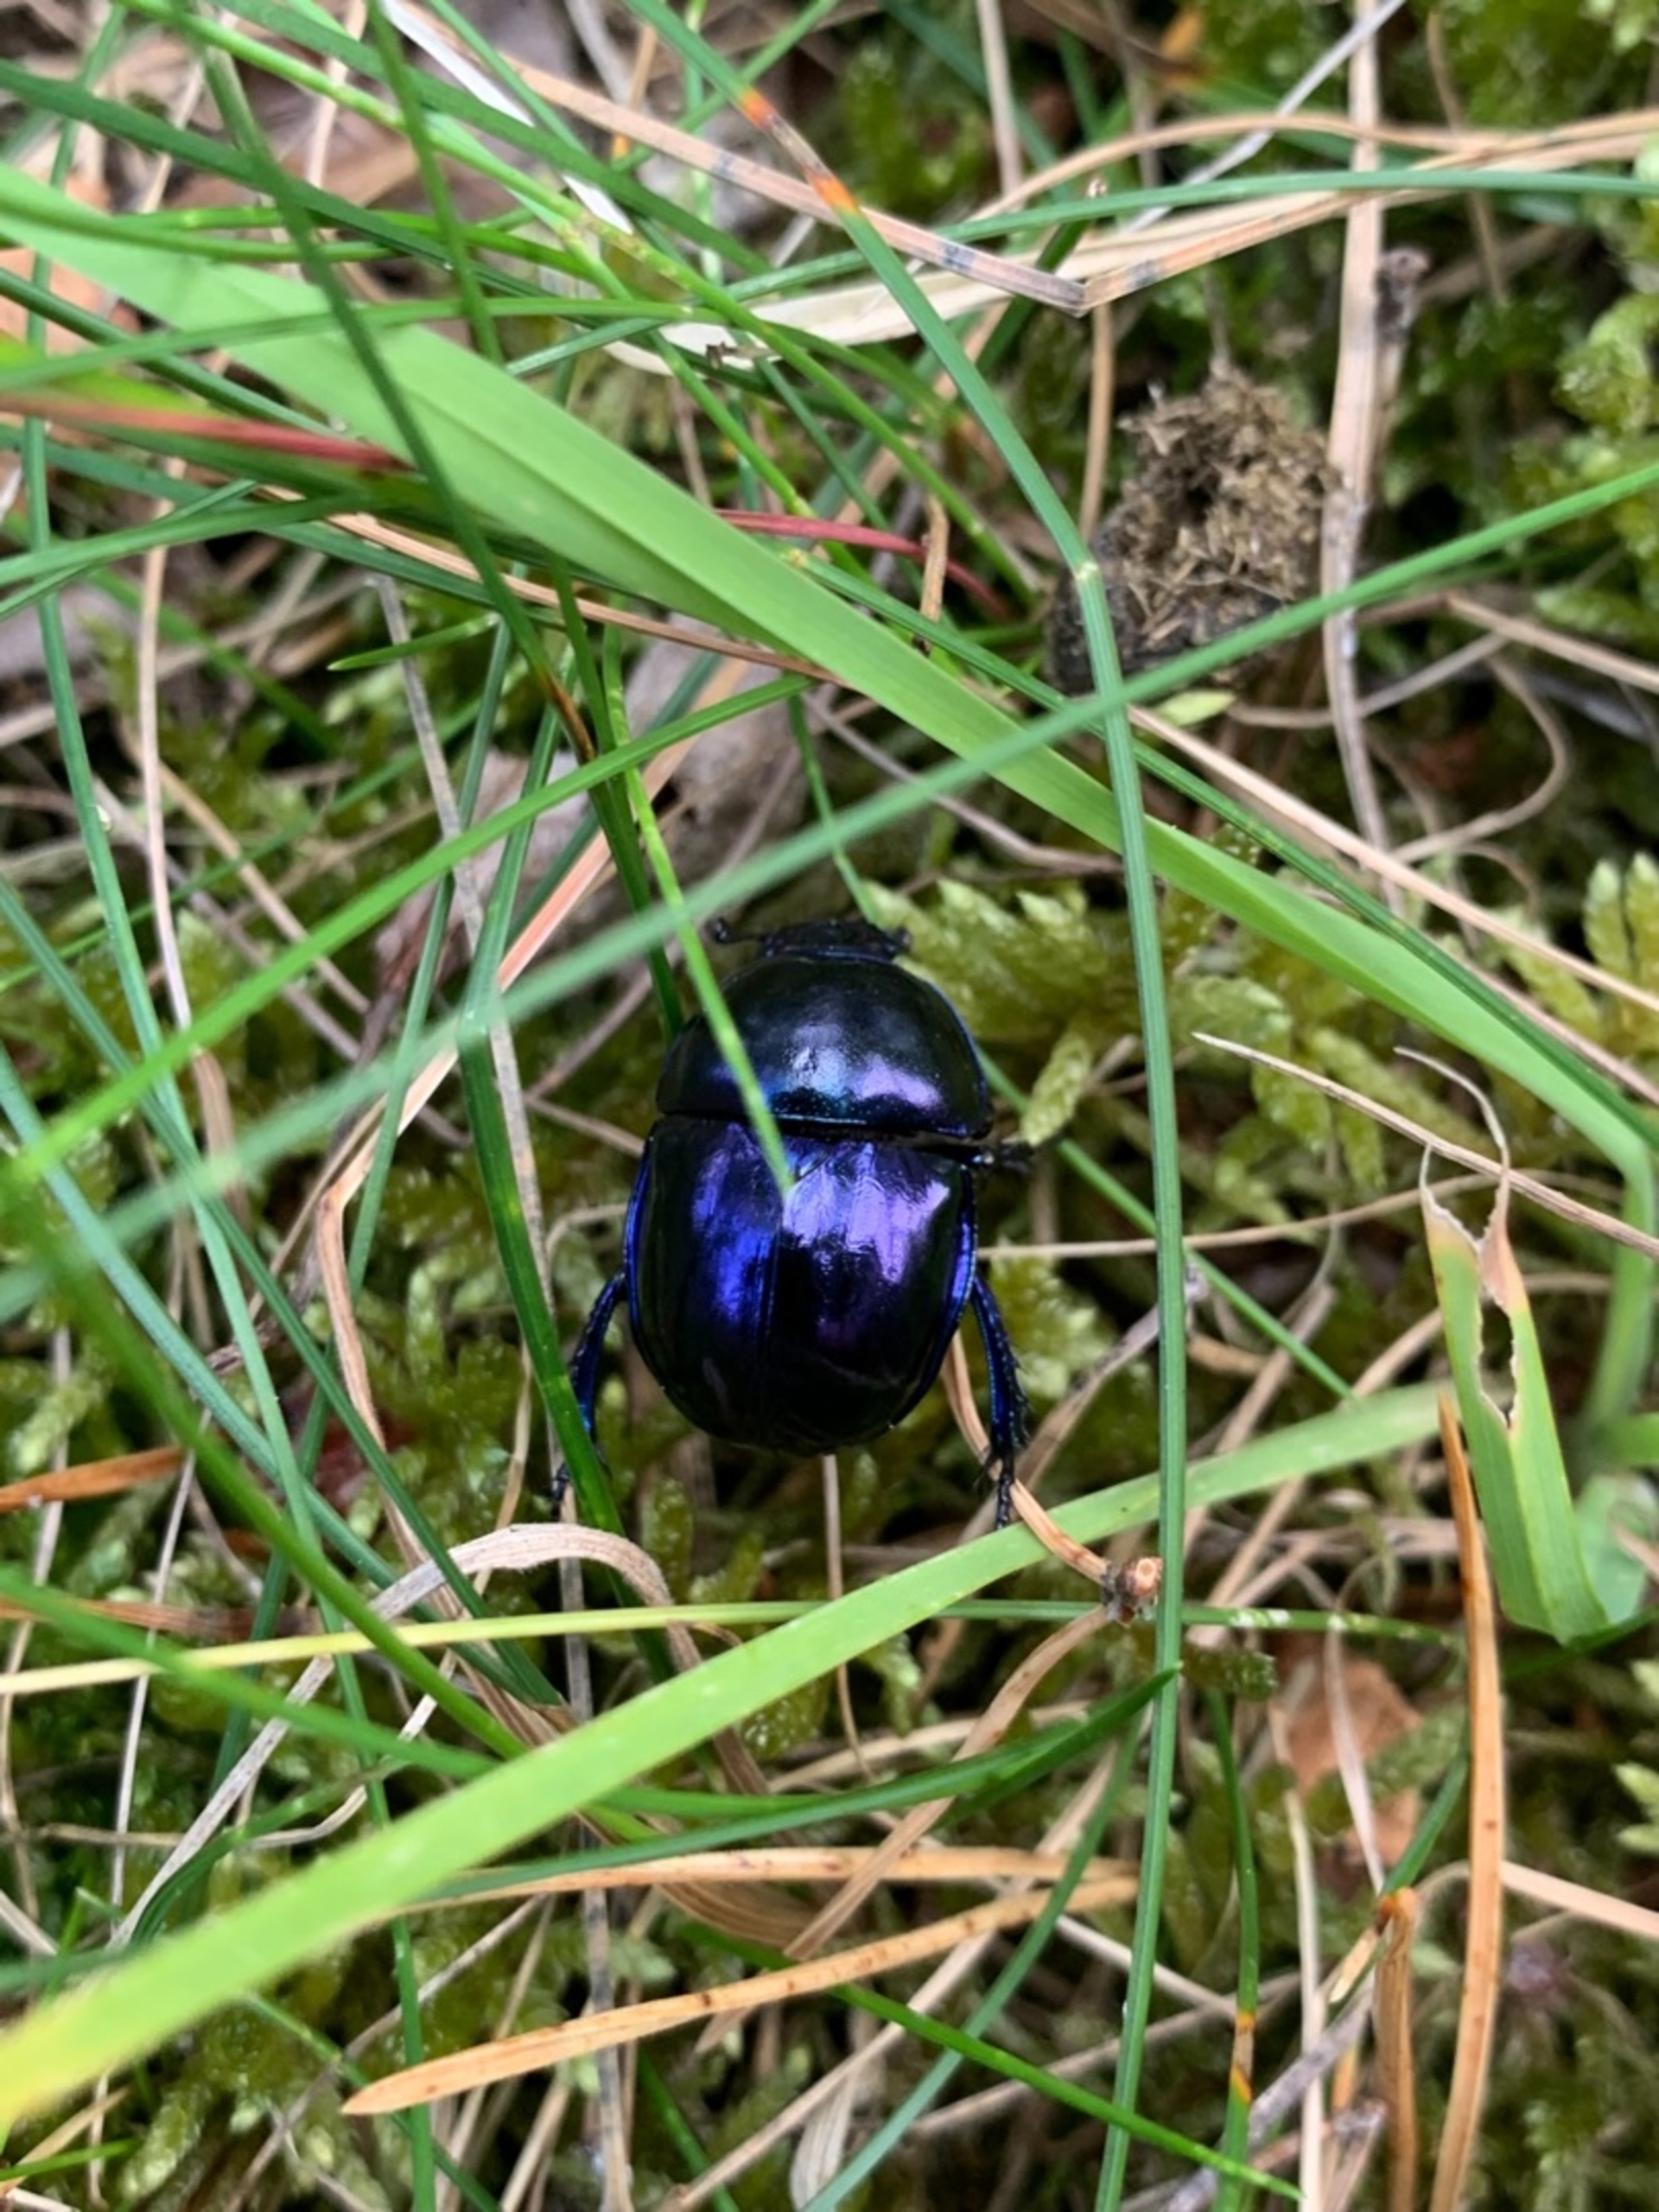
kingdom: Animalia
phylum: Arthropoda
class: Insecta
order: Coleoptera
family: Geotrupidae
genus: Trypocopris
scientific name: Trypocopris vernalis
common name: Glat skarnbasse
